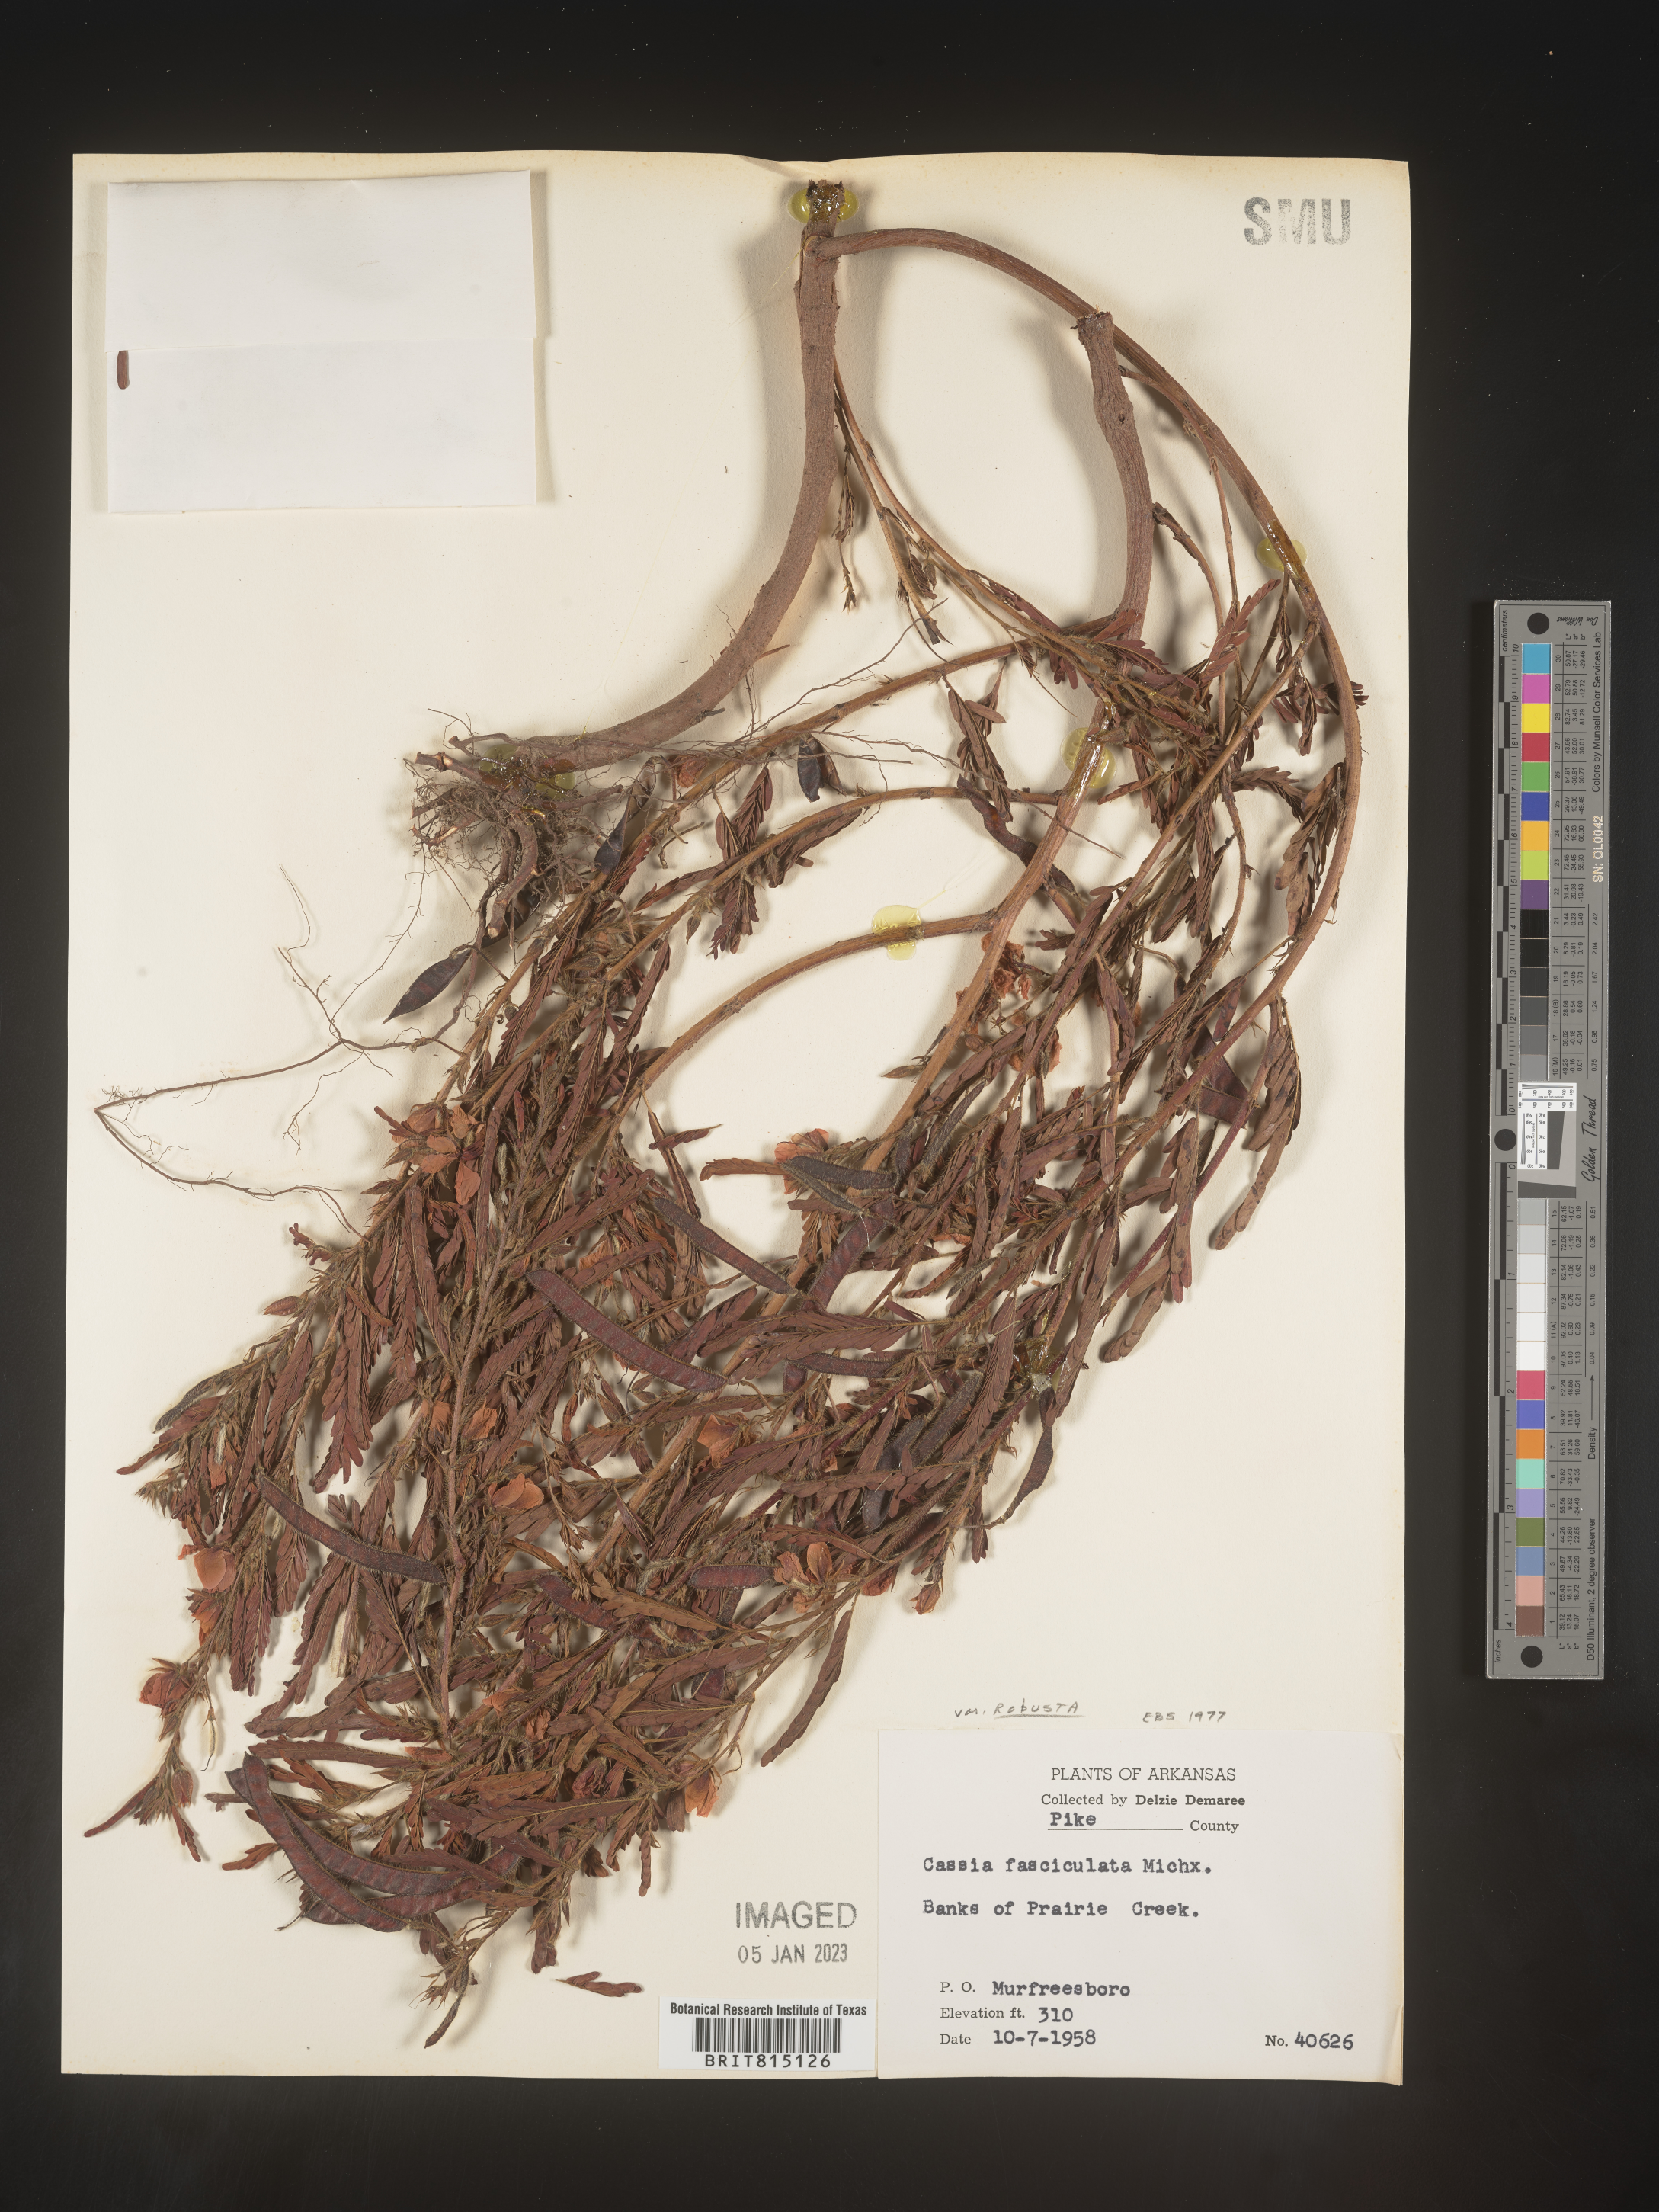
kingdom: Plantae
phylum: Tracheophyta
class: Magnoliopsida
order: Fabales
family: Fabaceae
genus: Chamaecrista
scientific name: Chamaecrista fasciculata
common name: Golden cassia
